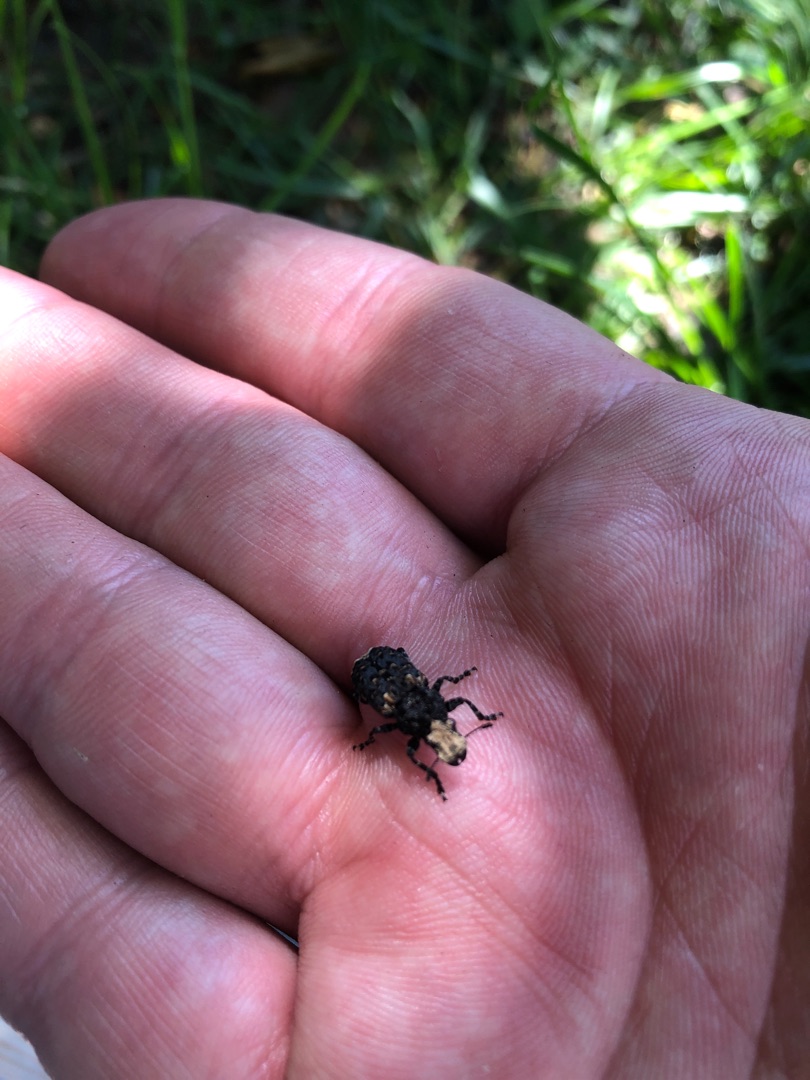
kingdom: Animalia
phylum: Arthropoda
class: Insecta
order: Coleoptera
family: Anthribidae
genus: Platyrhinus
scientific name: Platyrhinus resinosus
